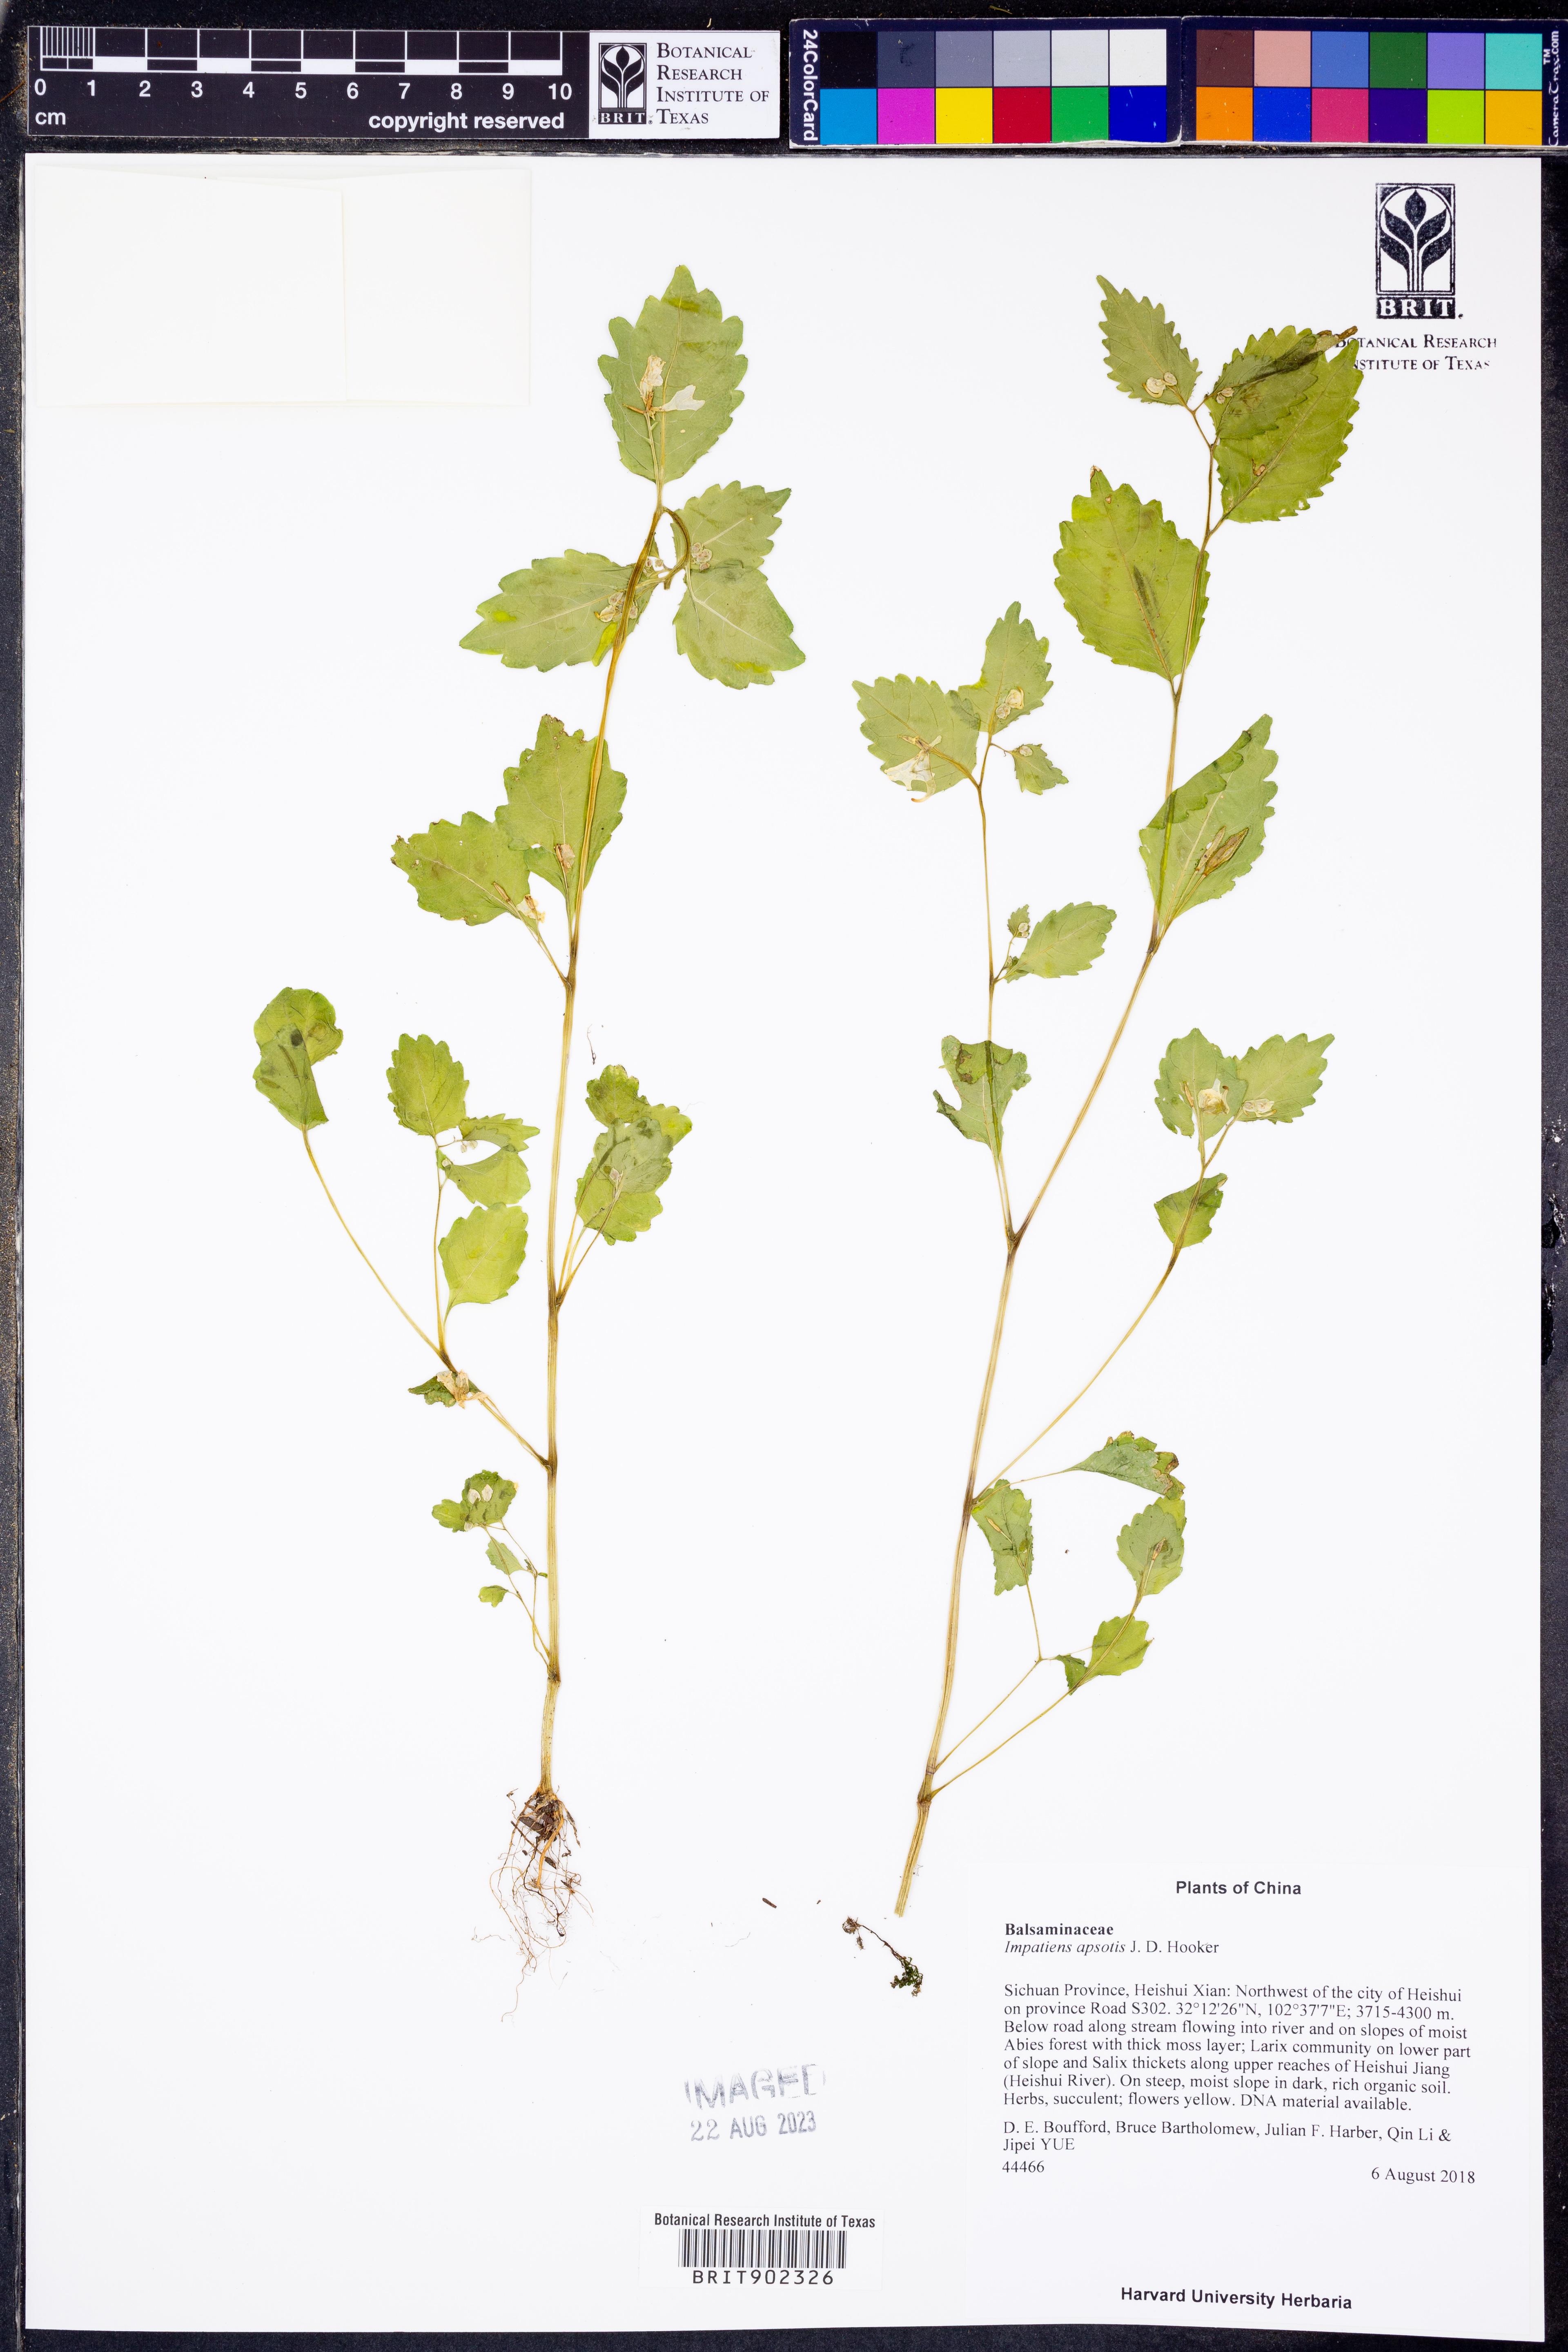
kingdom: Plantae
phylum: Tracheophyta
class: Magnoliopsida
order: Ericales
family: Balsaminaceae
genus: Impatiens
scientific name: Impatiens apsotis
